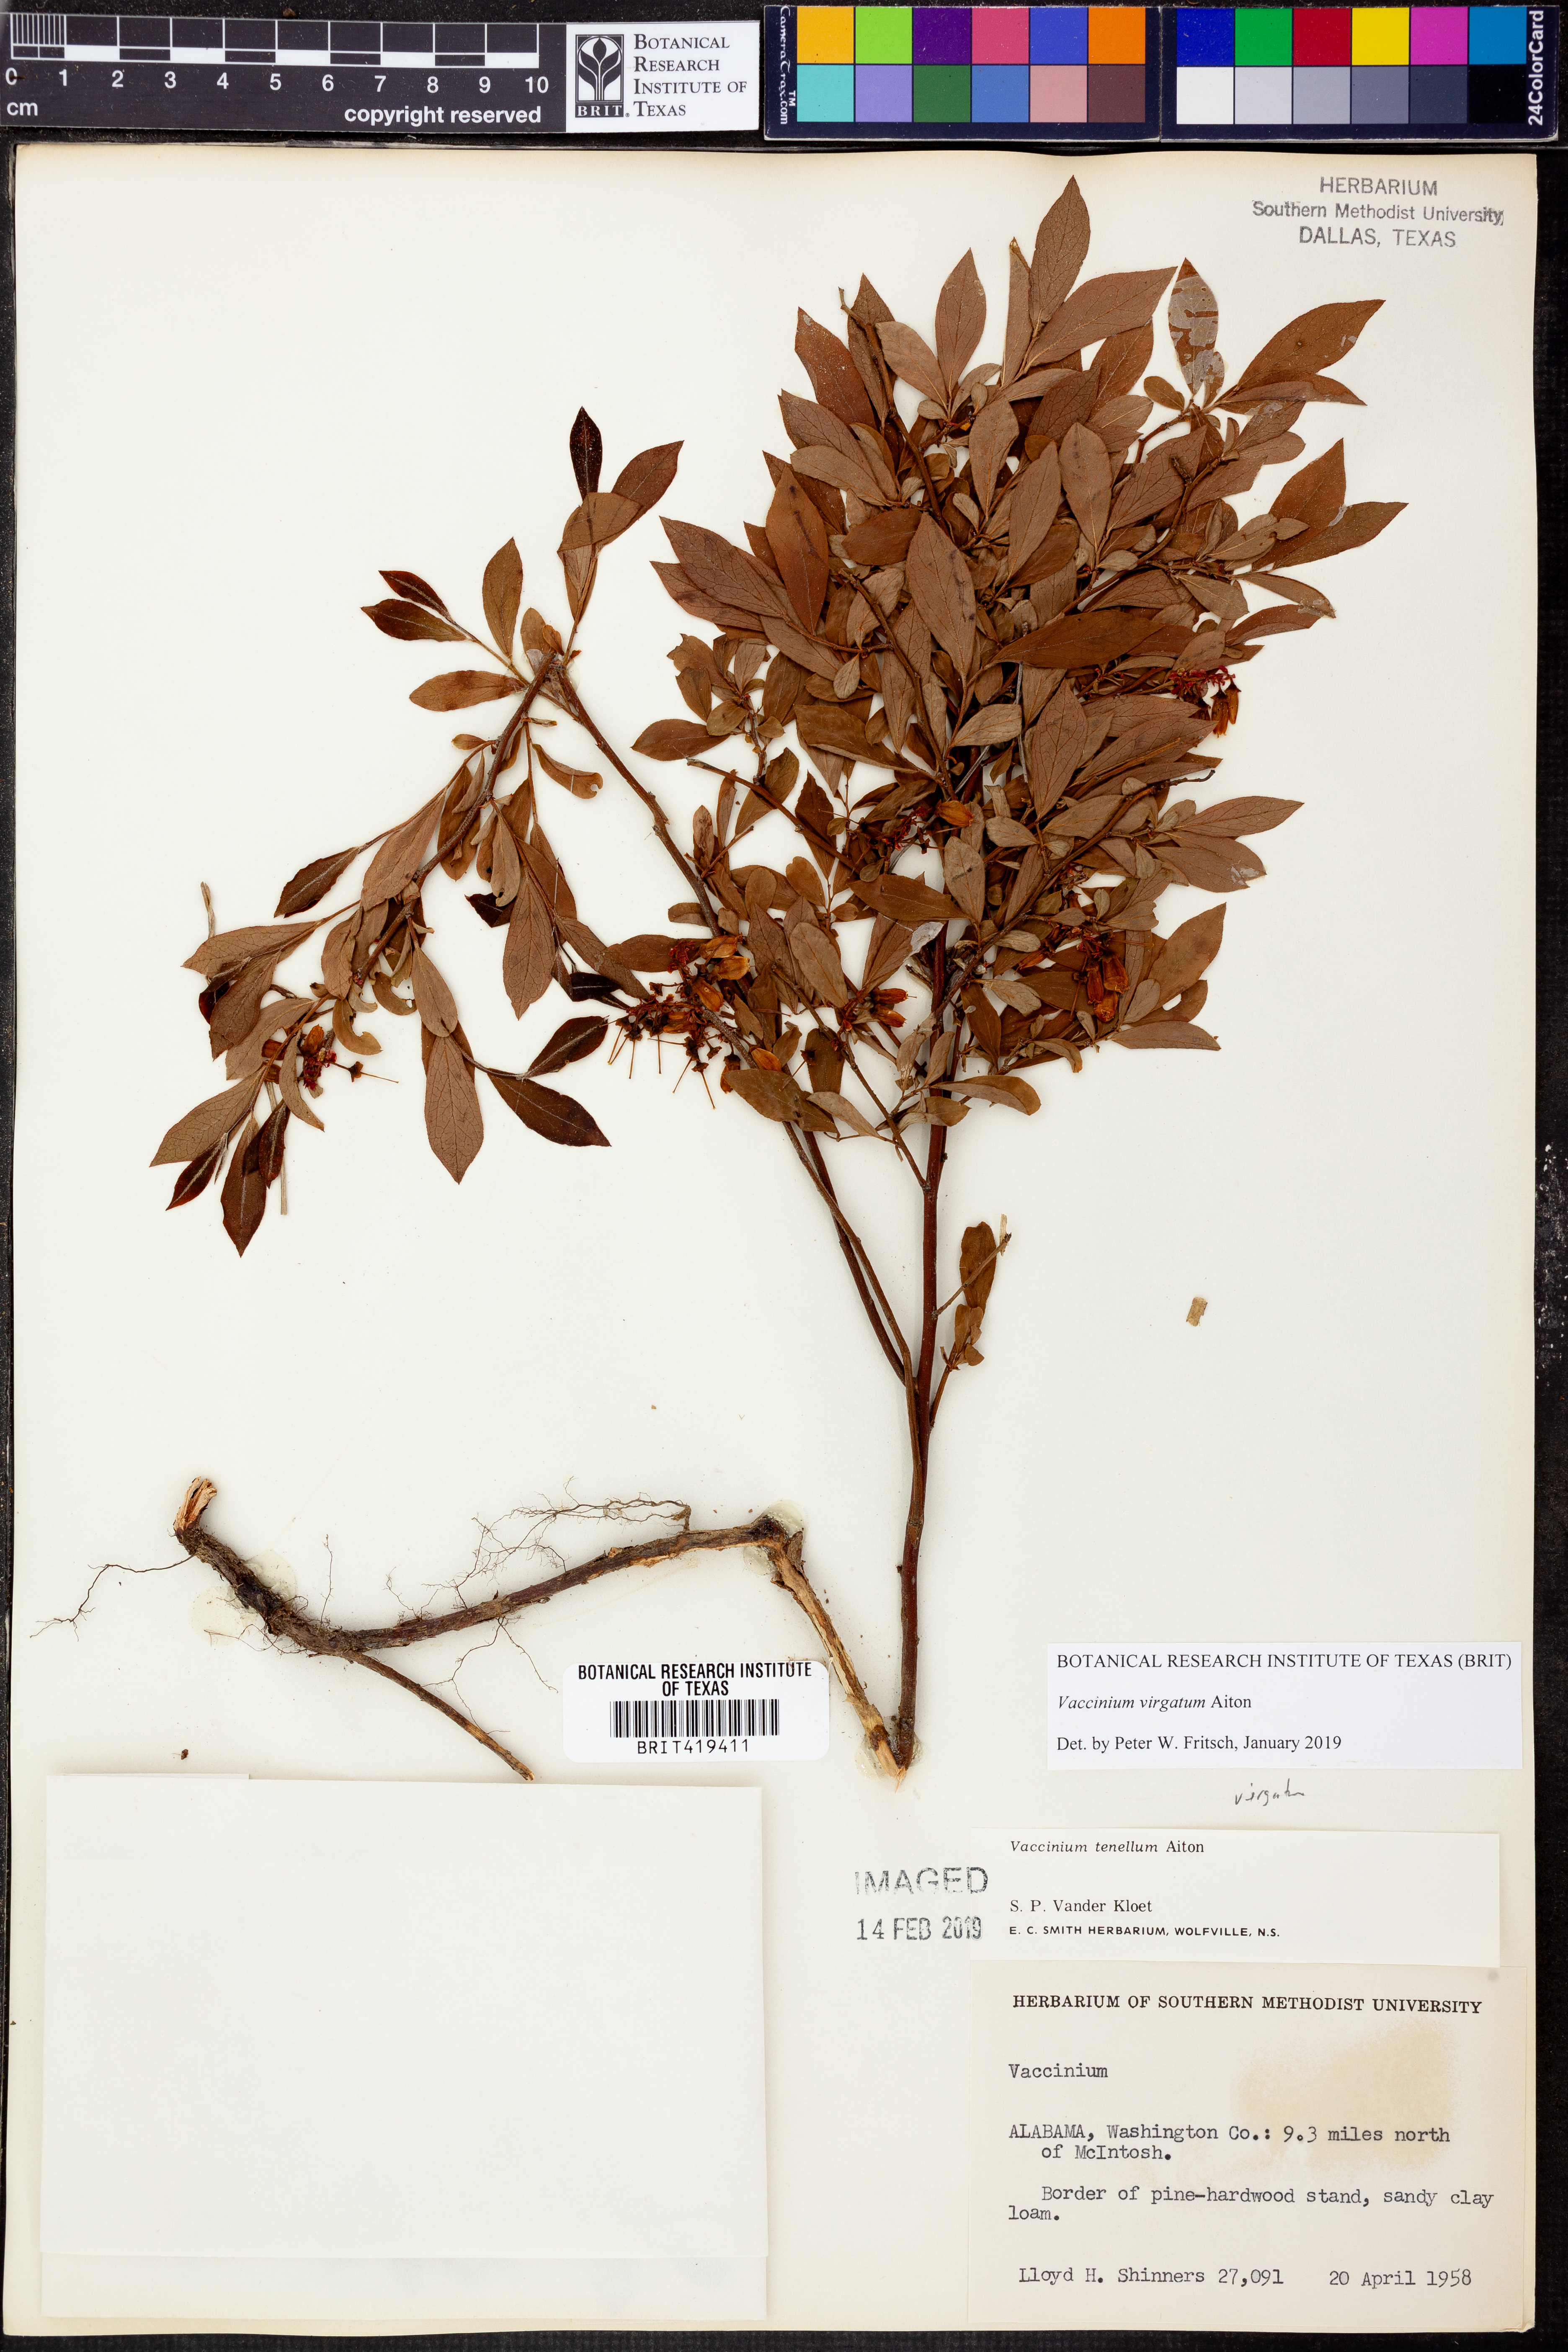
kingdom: Plantae
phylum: Tracheophyta
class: Magnoliopsida
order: Ericales
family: Ericaceae
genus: Vaccinium
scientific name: Vaccinium corymbosum
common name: Blueberry
